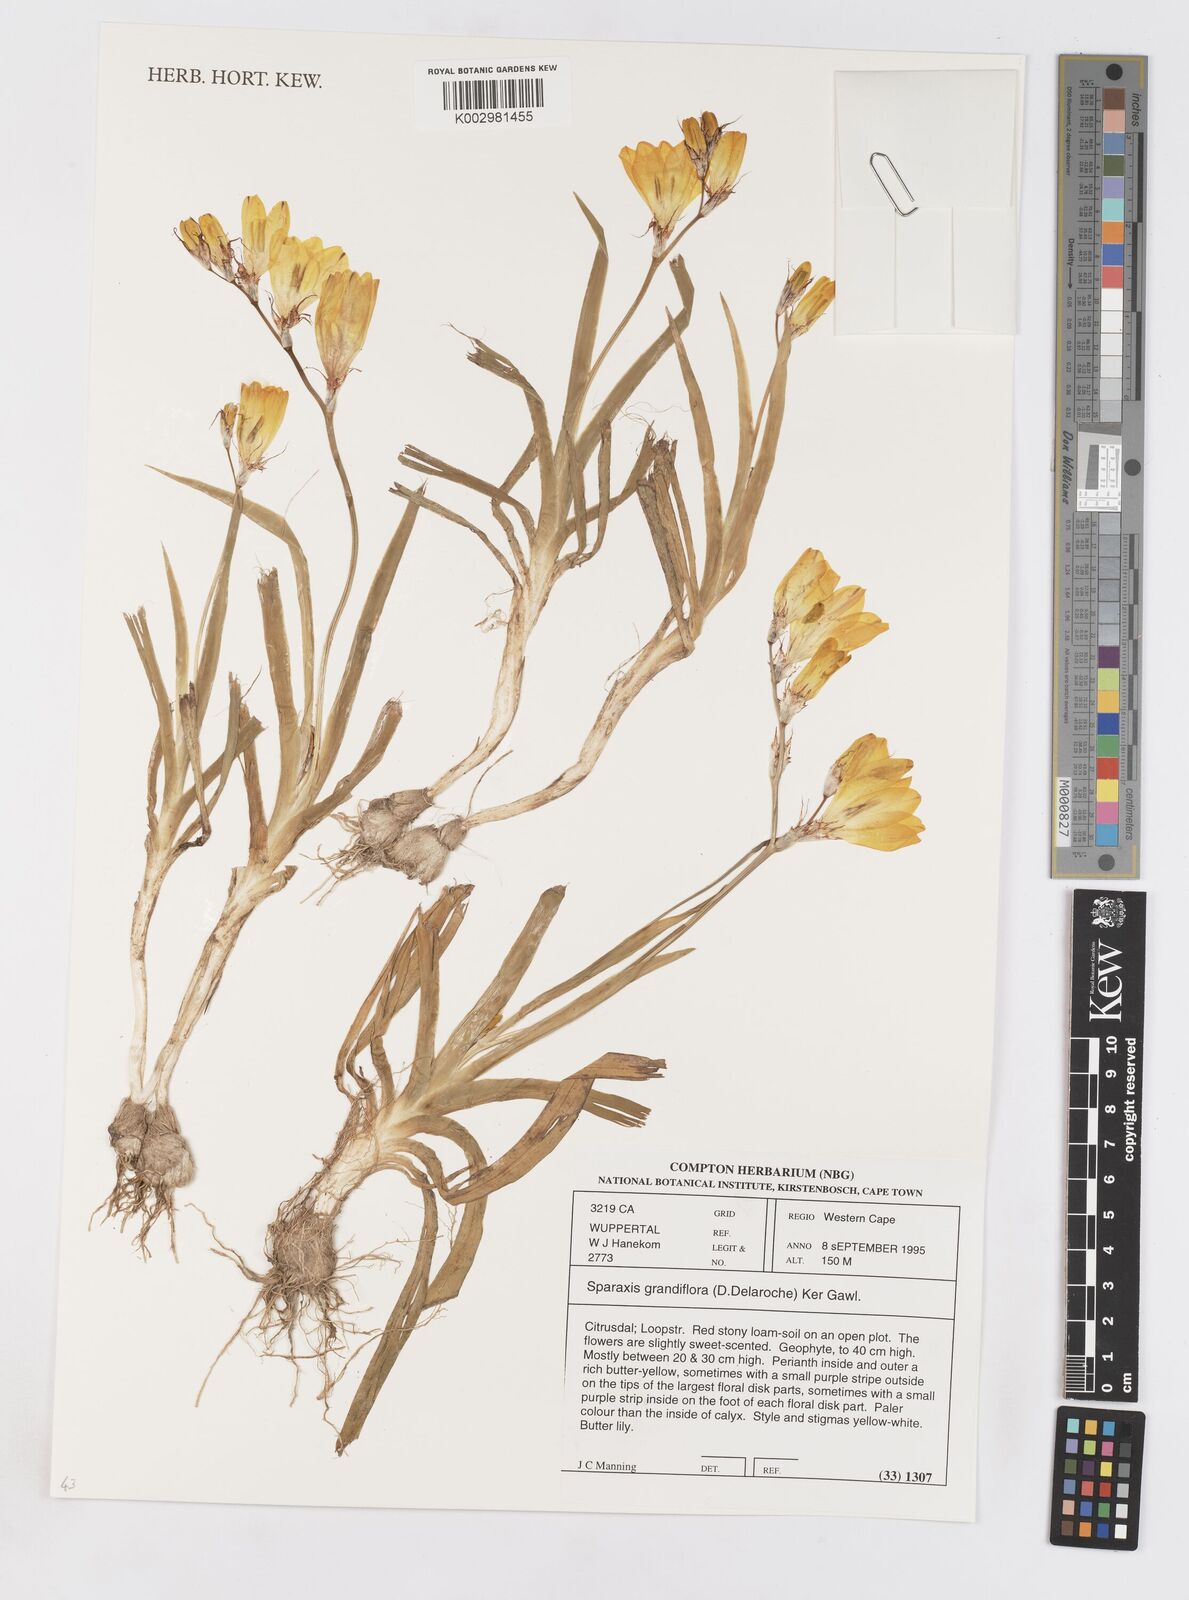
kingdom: Plantae
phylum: Tracheophyta
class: Liliopsida
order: Asparagales
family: Iridaceae
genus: Sparaxis
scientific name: Sparaxis grandiflora
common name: Plain harlequin-flower
